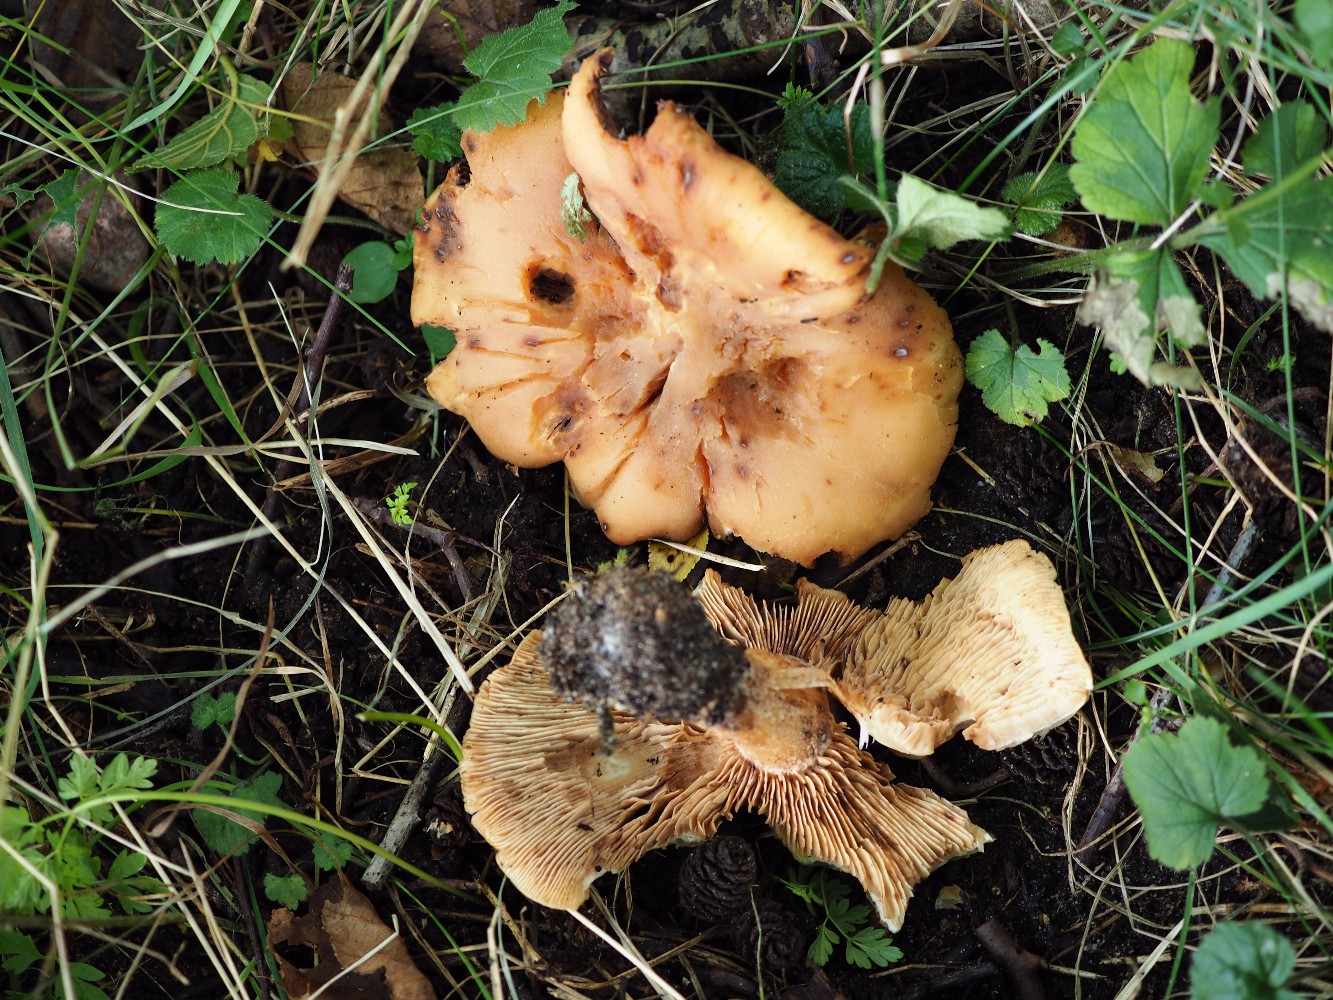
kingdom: Fungi
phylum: Basidiomycota
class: Agaricomycetes
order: Agaricales
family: Entolomataceae
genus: Clitopilus
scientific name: Clitopilus geminus
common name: kødfarvet troldhat
